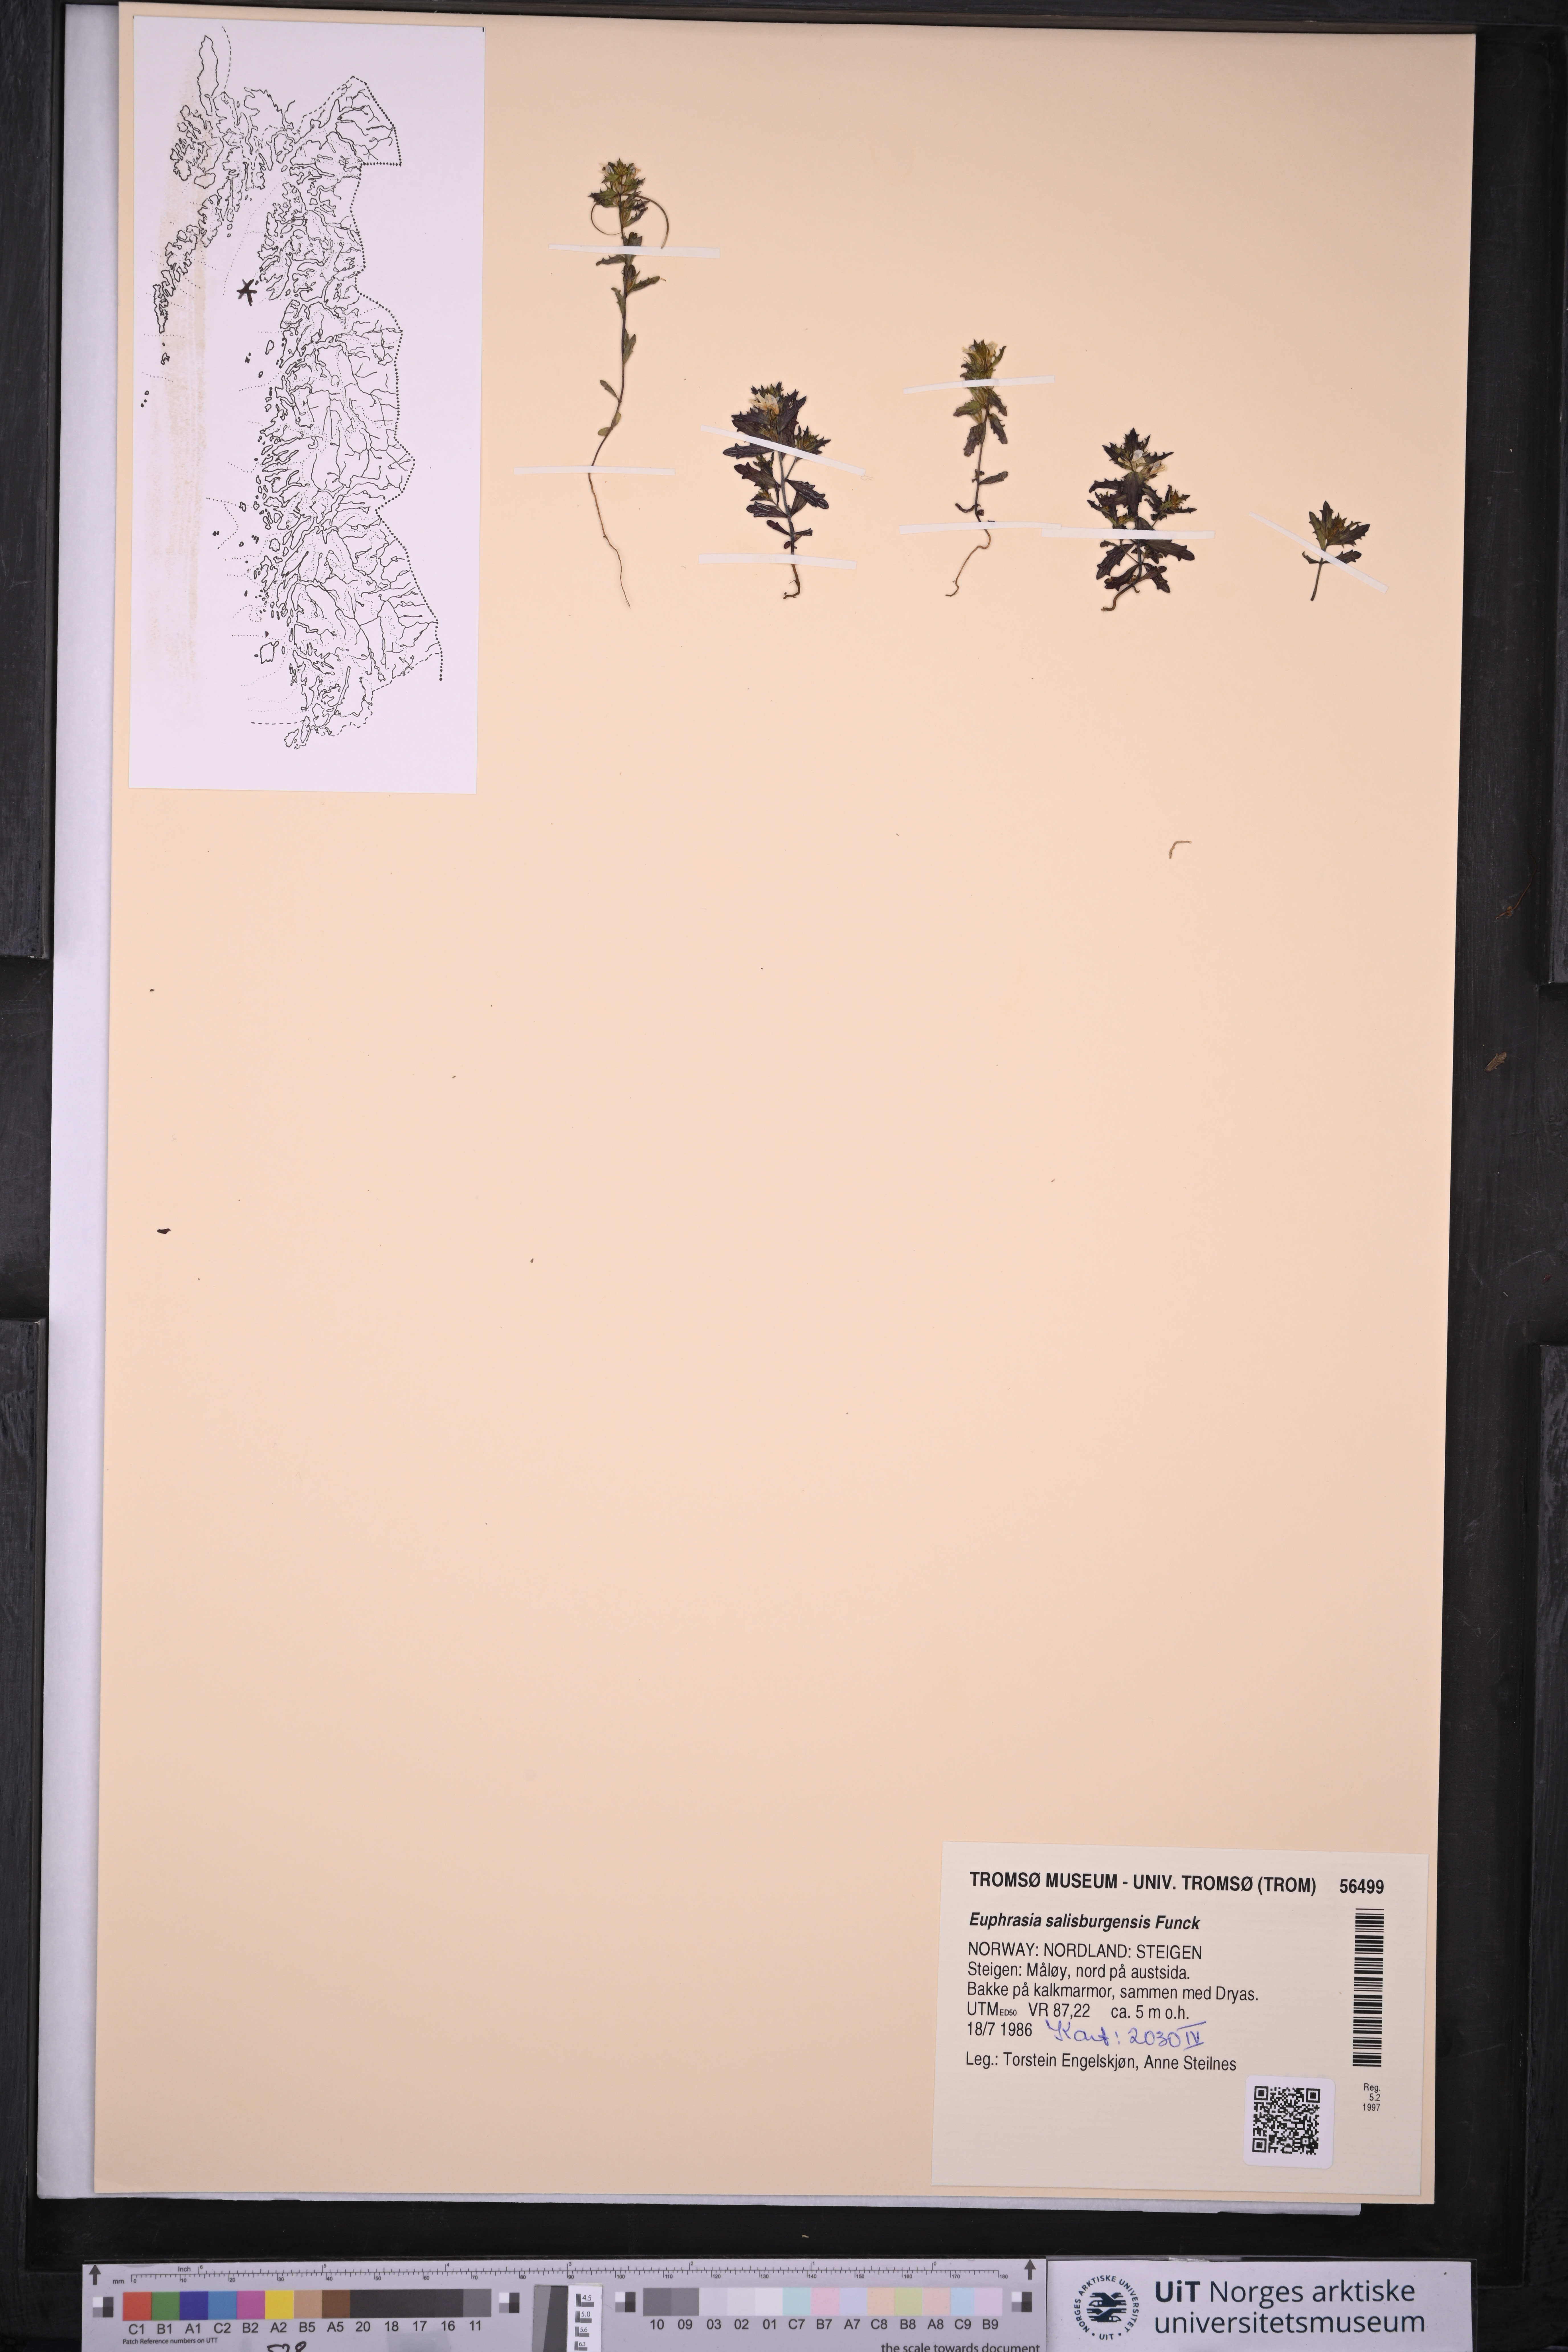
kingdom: Plantae
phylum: Tracheophyta
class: Magnoliopsida
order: Lamiales
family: Orobanchaceae
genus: Euphrasia
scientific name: Euphrasia salisburgensis
